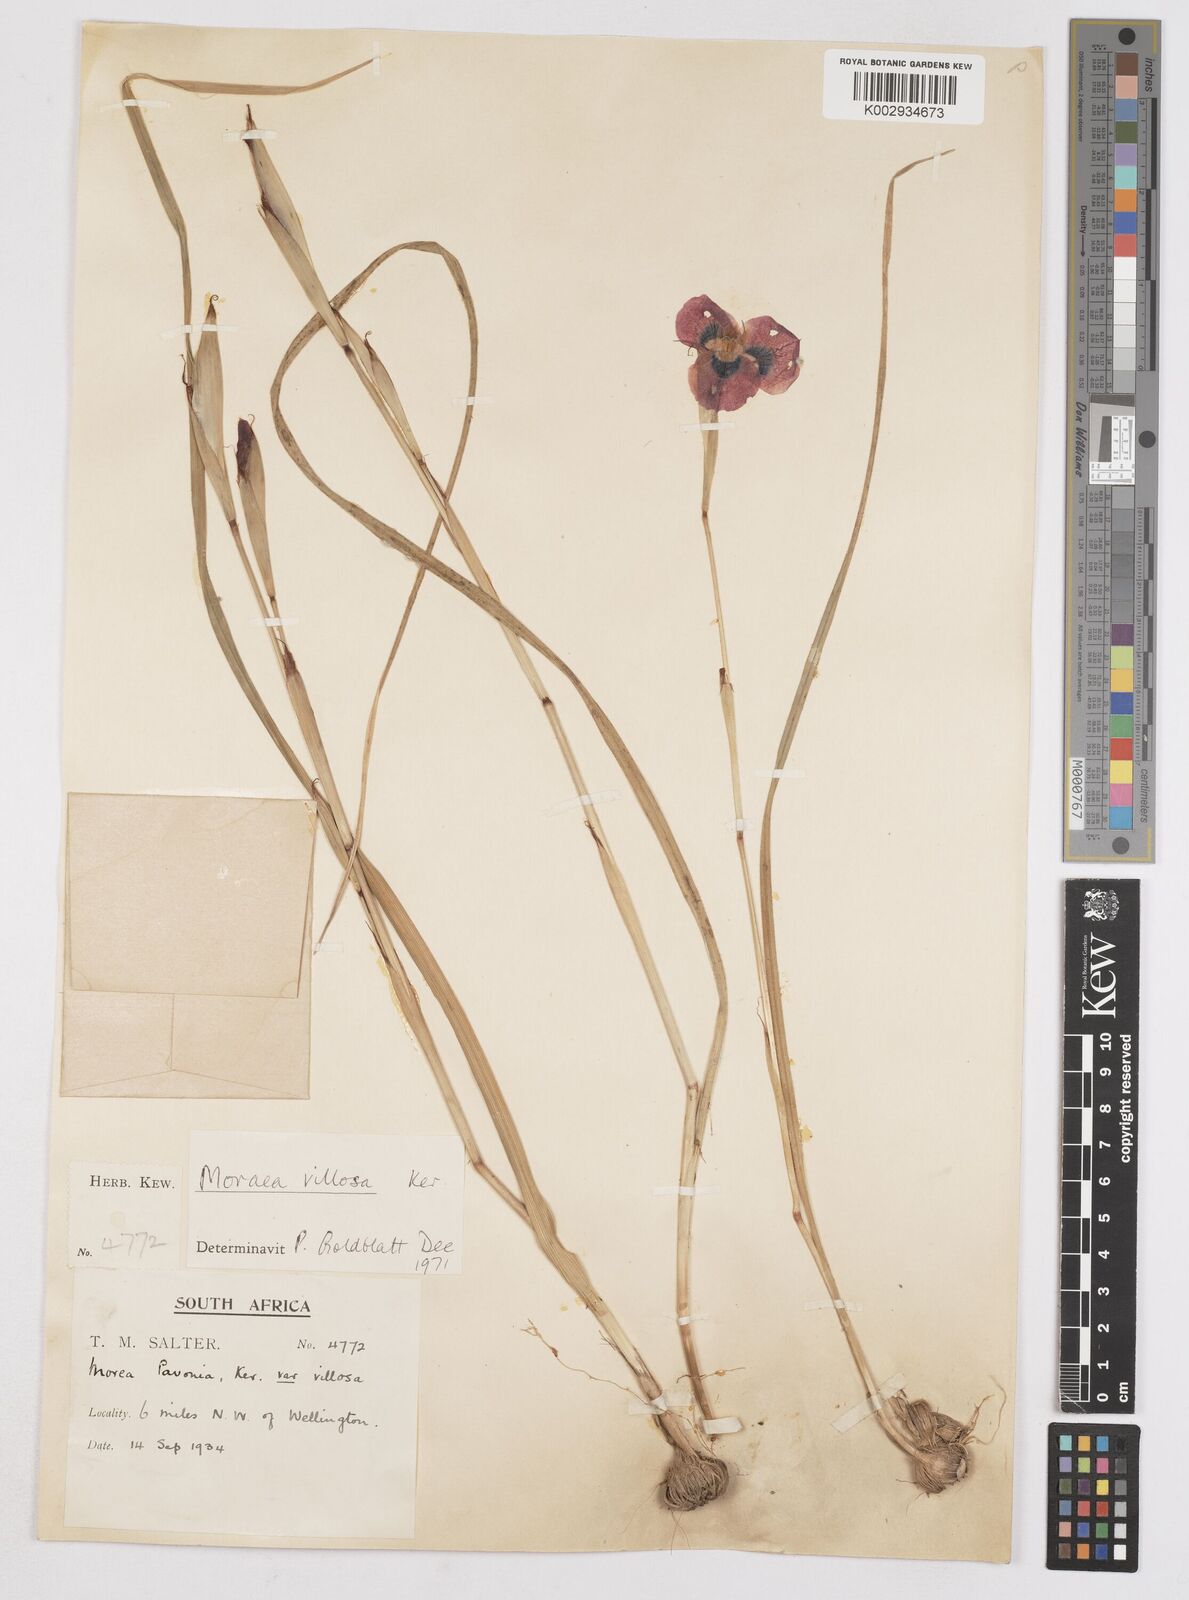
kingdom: Plantae
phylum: Tracheophyta
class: Liliopsida
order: Asparagales
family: Iridaceae
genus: Moraea
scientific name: Moraea villosa
